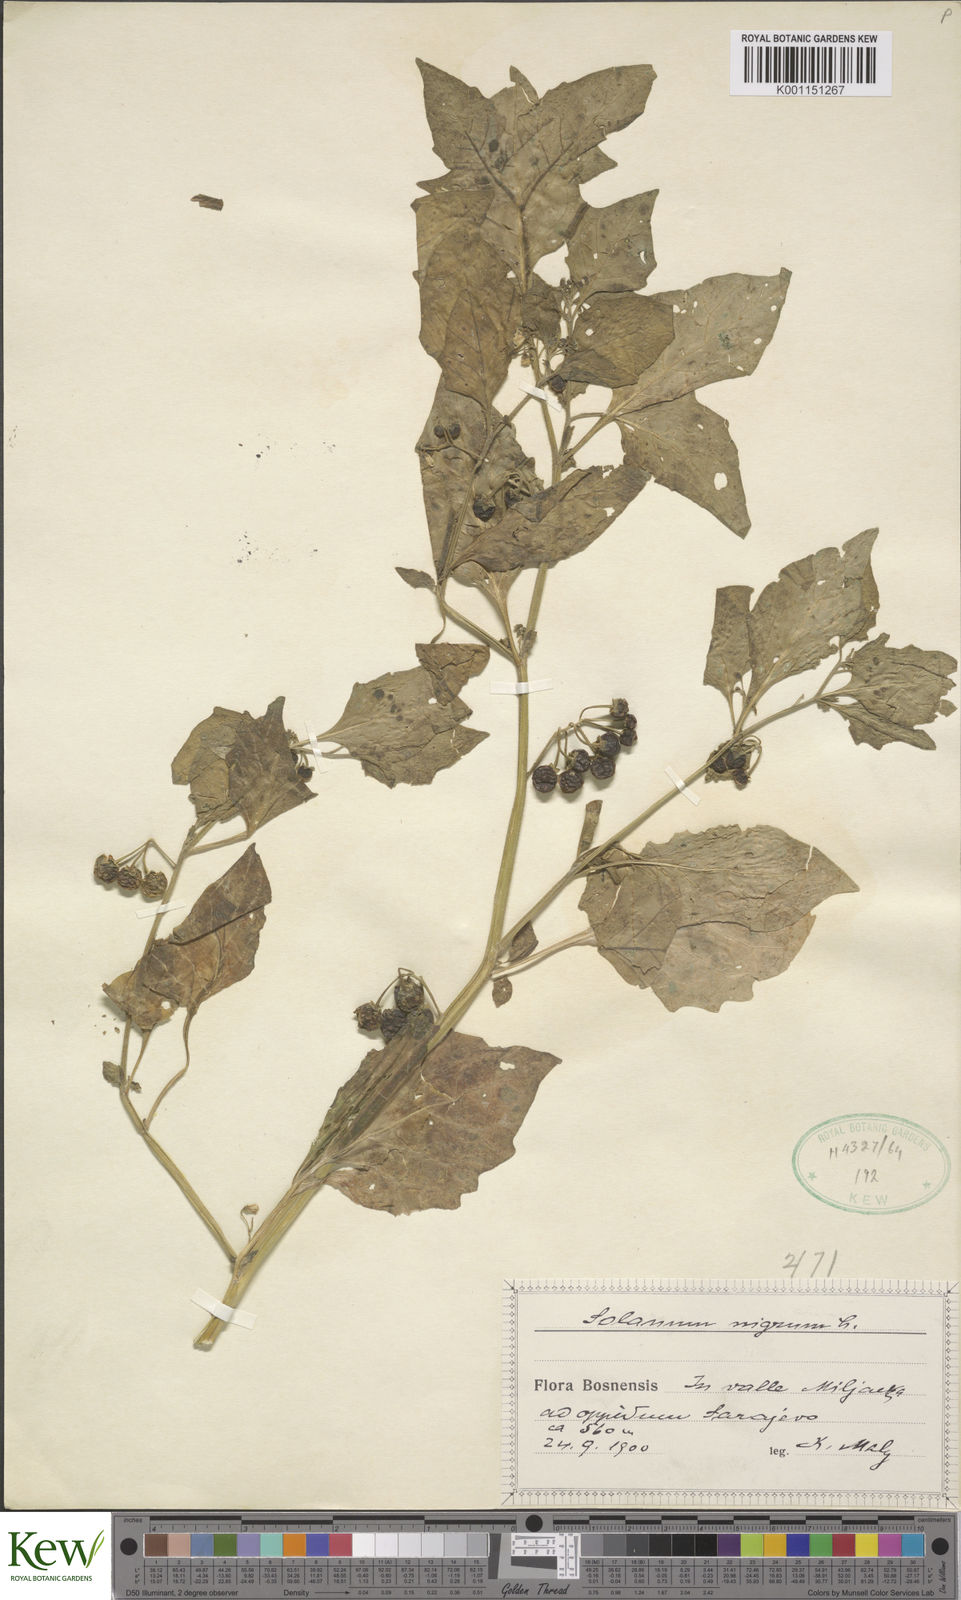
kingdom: Plantae
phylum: Tracheophyta
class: Magnoliopsida
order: Solanales
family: Solanaceae
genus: Solanum
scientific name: Solanum nigrum
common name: Black nightshade
